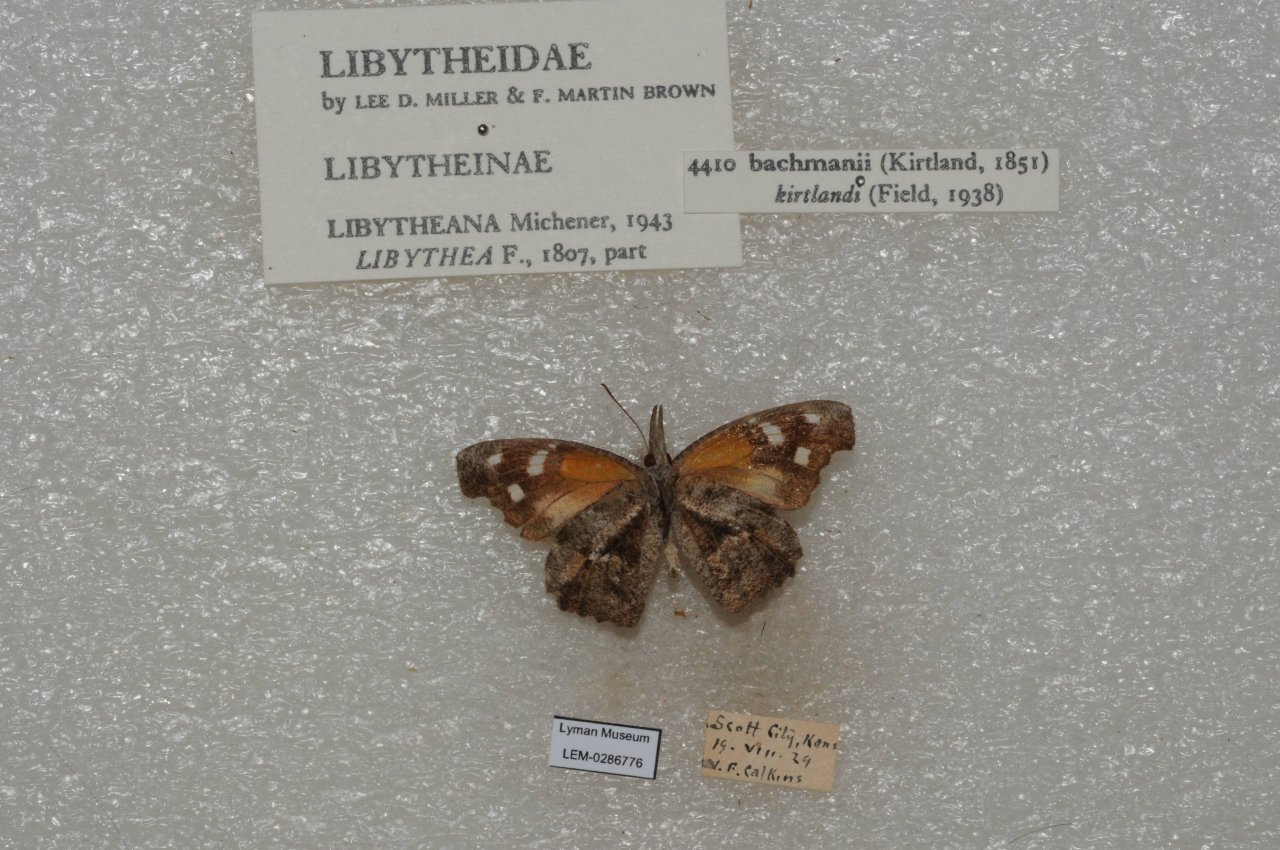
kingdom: Animalia
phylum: Arthropoda
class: Insecta
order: Lepidoptera
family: Nymphalidae
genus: Libytheana
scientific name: Libytheana carinenta
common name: American Snout
